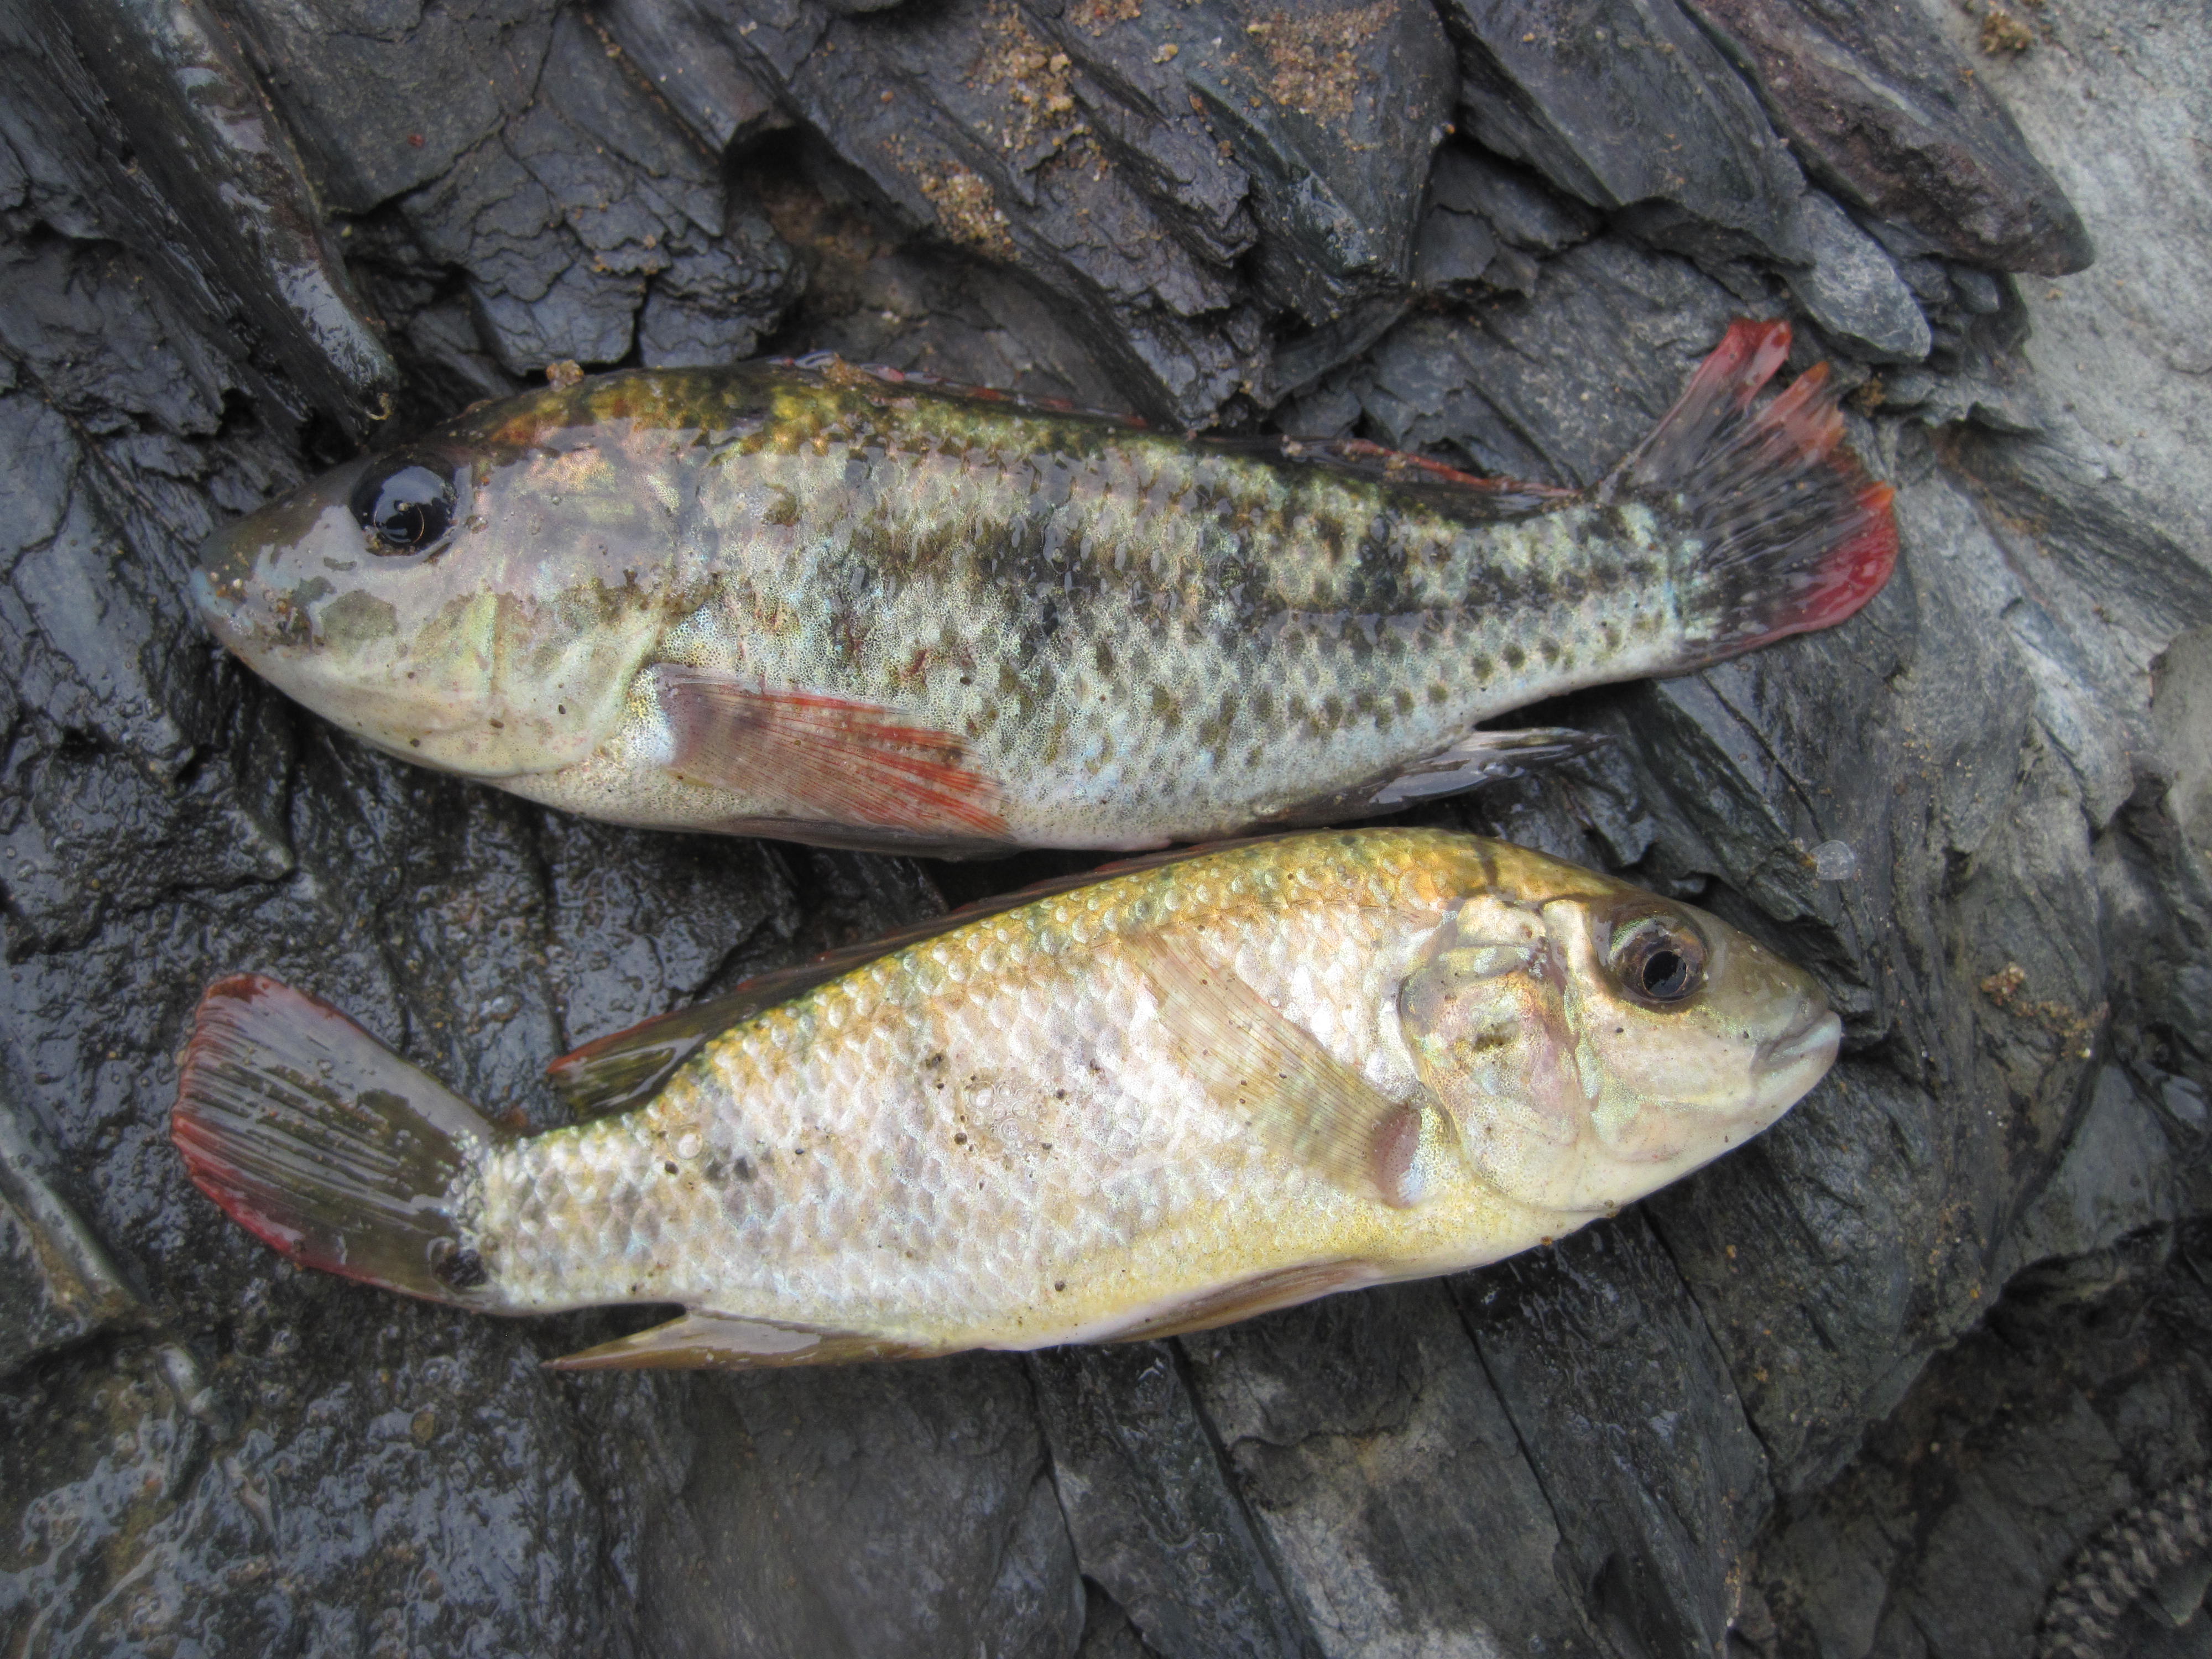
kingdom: Animalia
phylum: Chordata
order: Perciformes
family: Cichlidae
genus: Oreochromis
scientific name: Oreochromis mossambicus
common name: Mozambique tilapia
